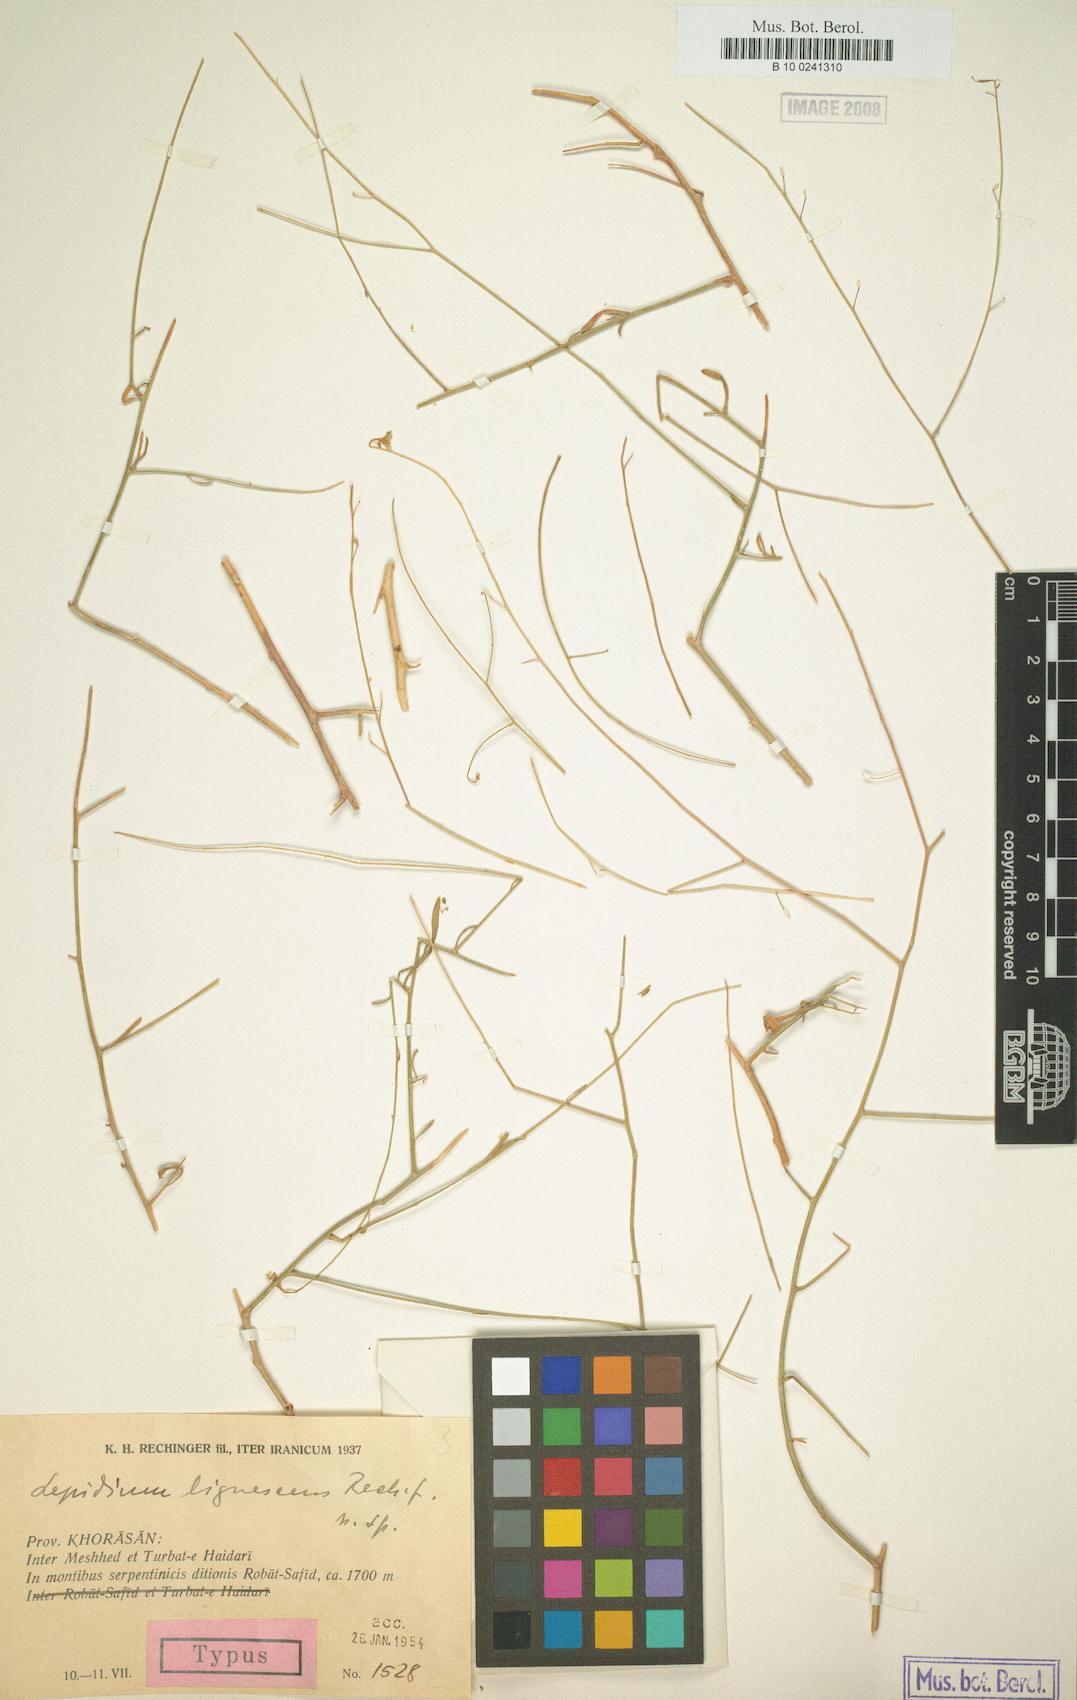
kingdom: Plantae
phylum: Tracheophyta
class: Magnoliopsida
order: Brassicales
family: Brassicaceae
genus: Lepidium
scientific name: Lepidium persicum
